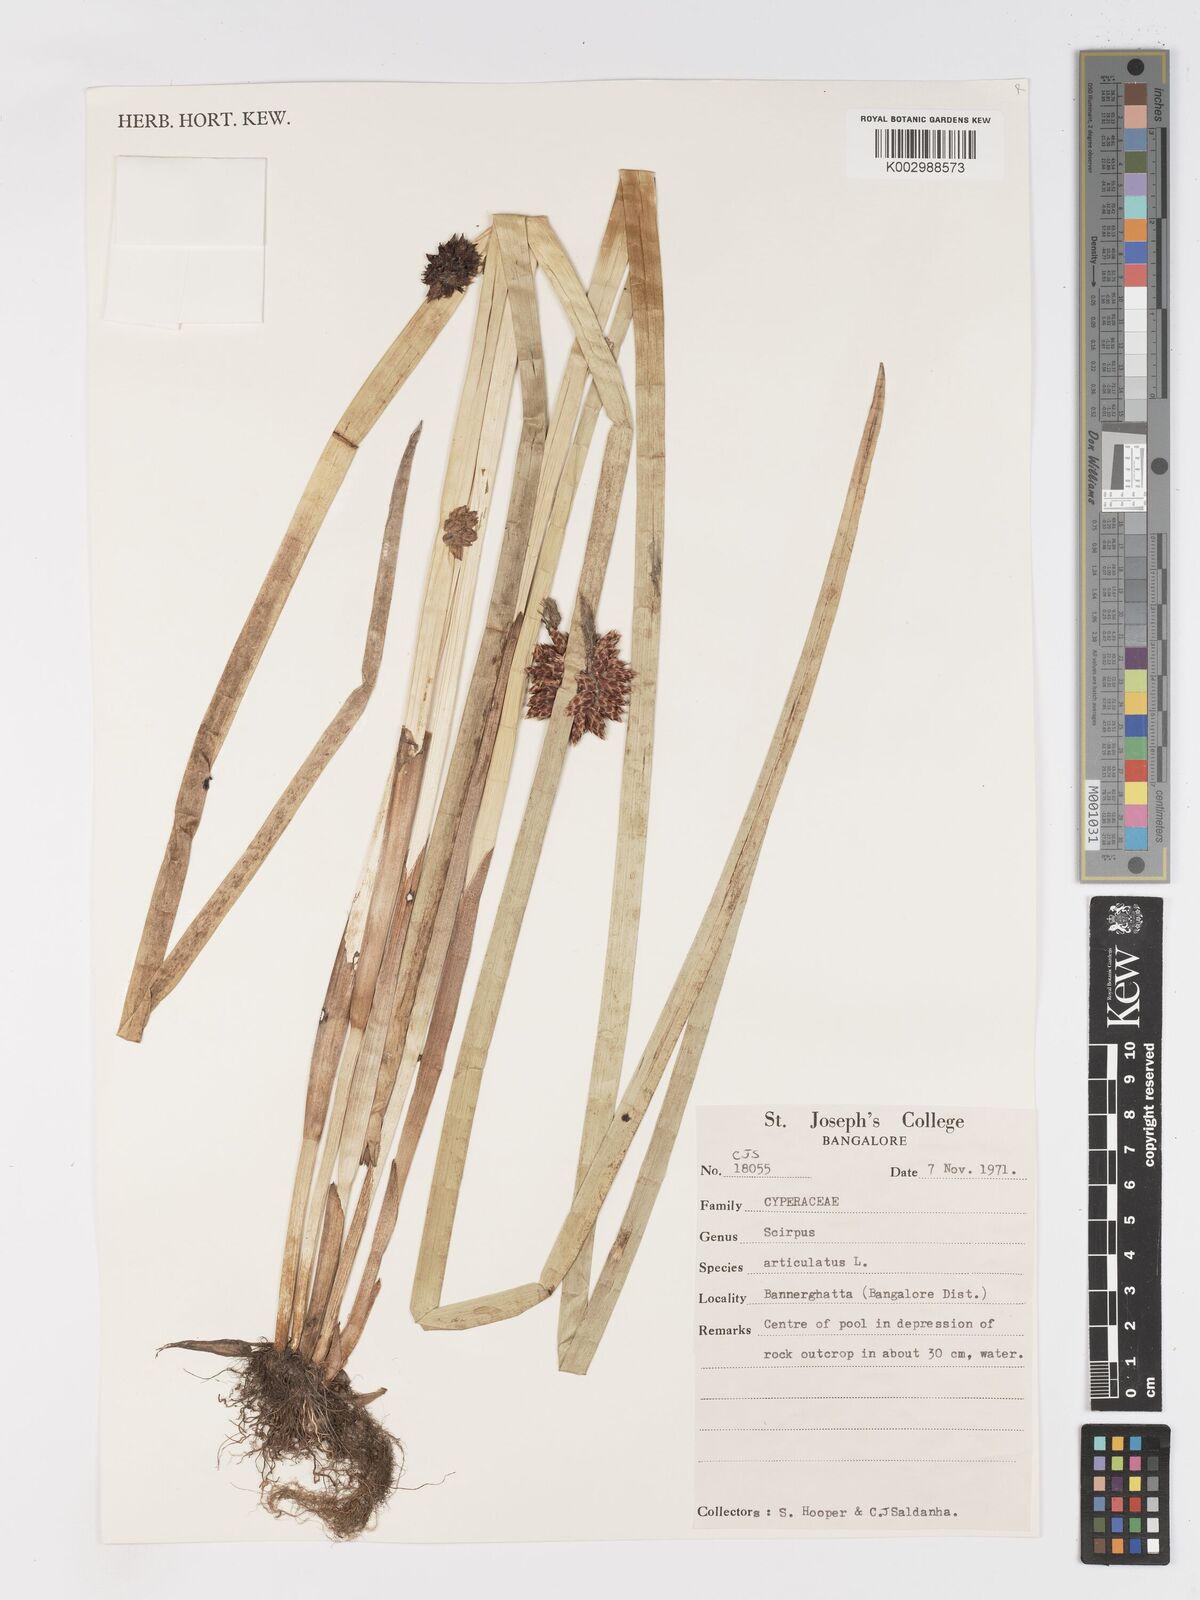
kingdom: Plantae
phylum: Tracheophyta
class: Liliopsida
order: Poales
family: Cyperaceae
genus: Schoenoplectiella
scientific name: Schoenoplectiella articulata
